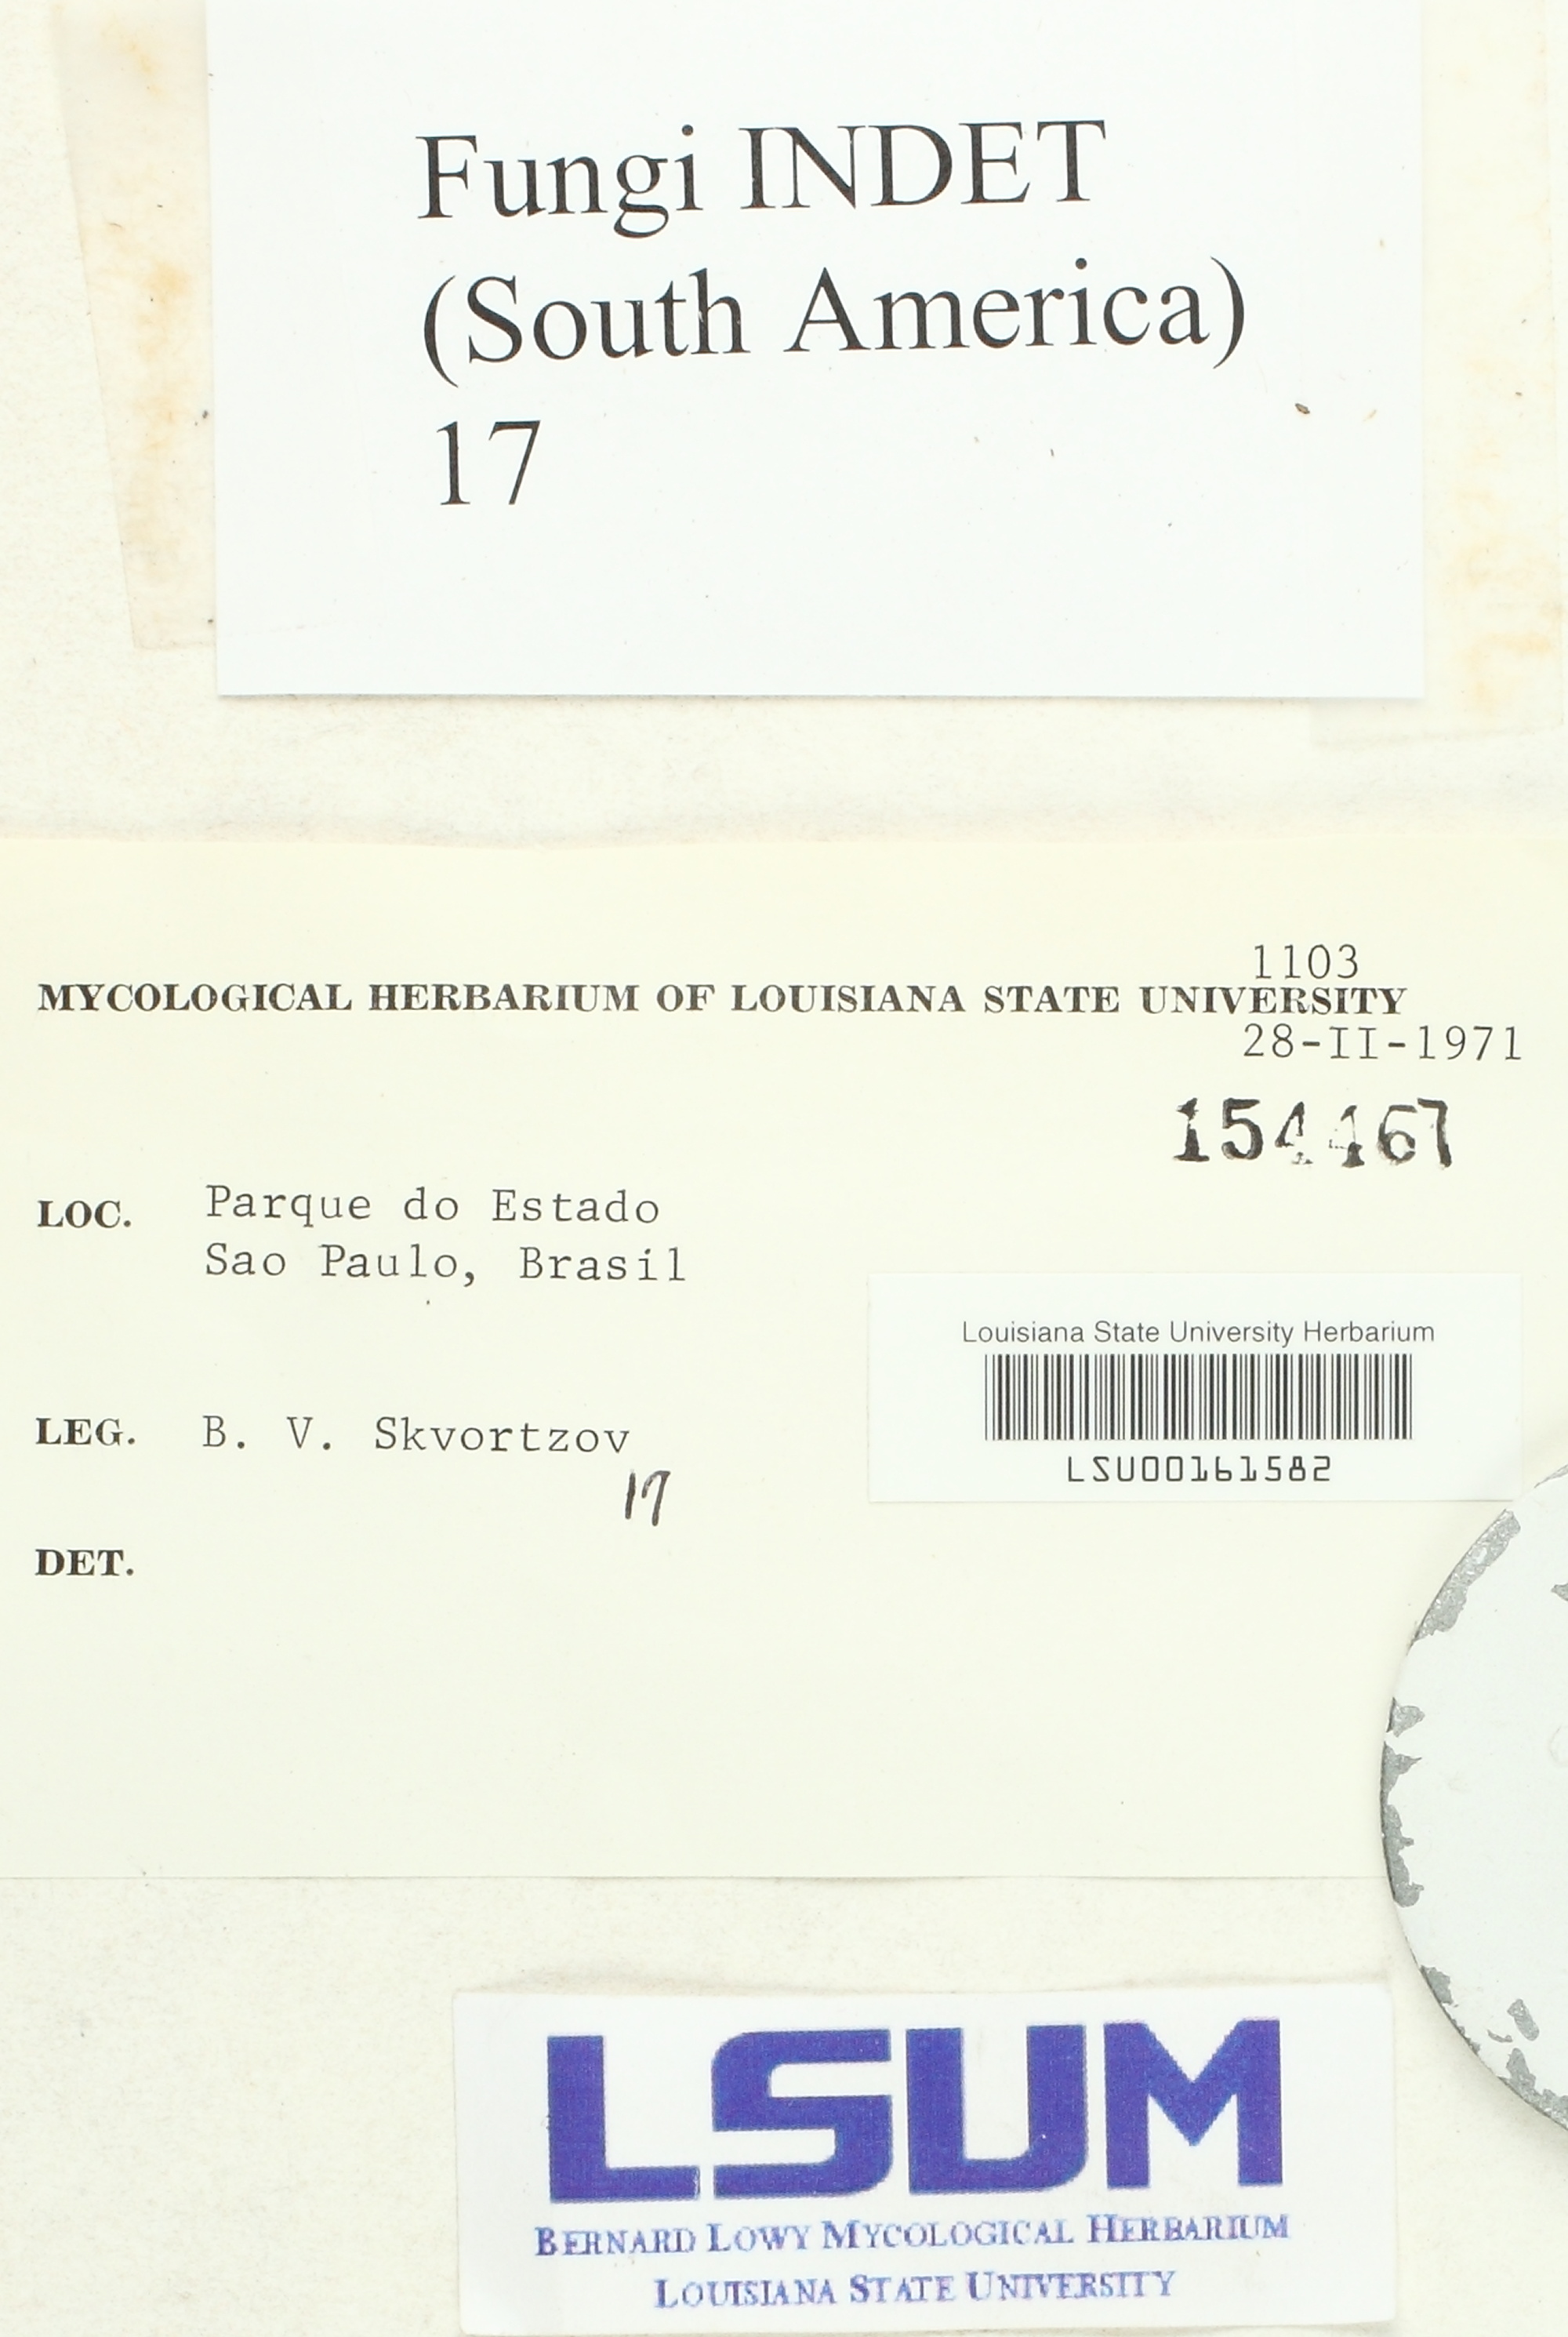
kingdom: Fungi
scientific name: Fungi
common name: Fungi
